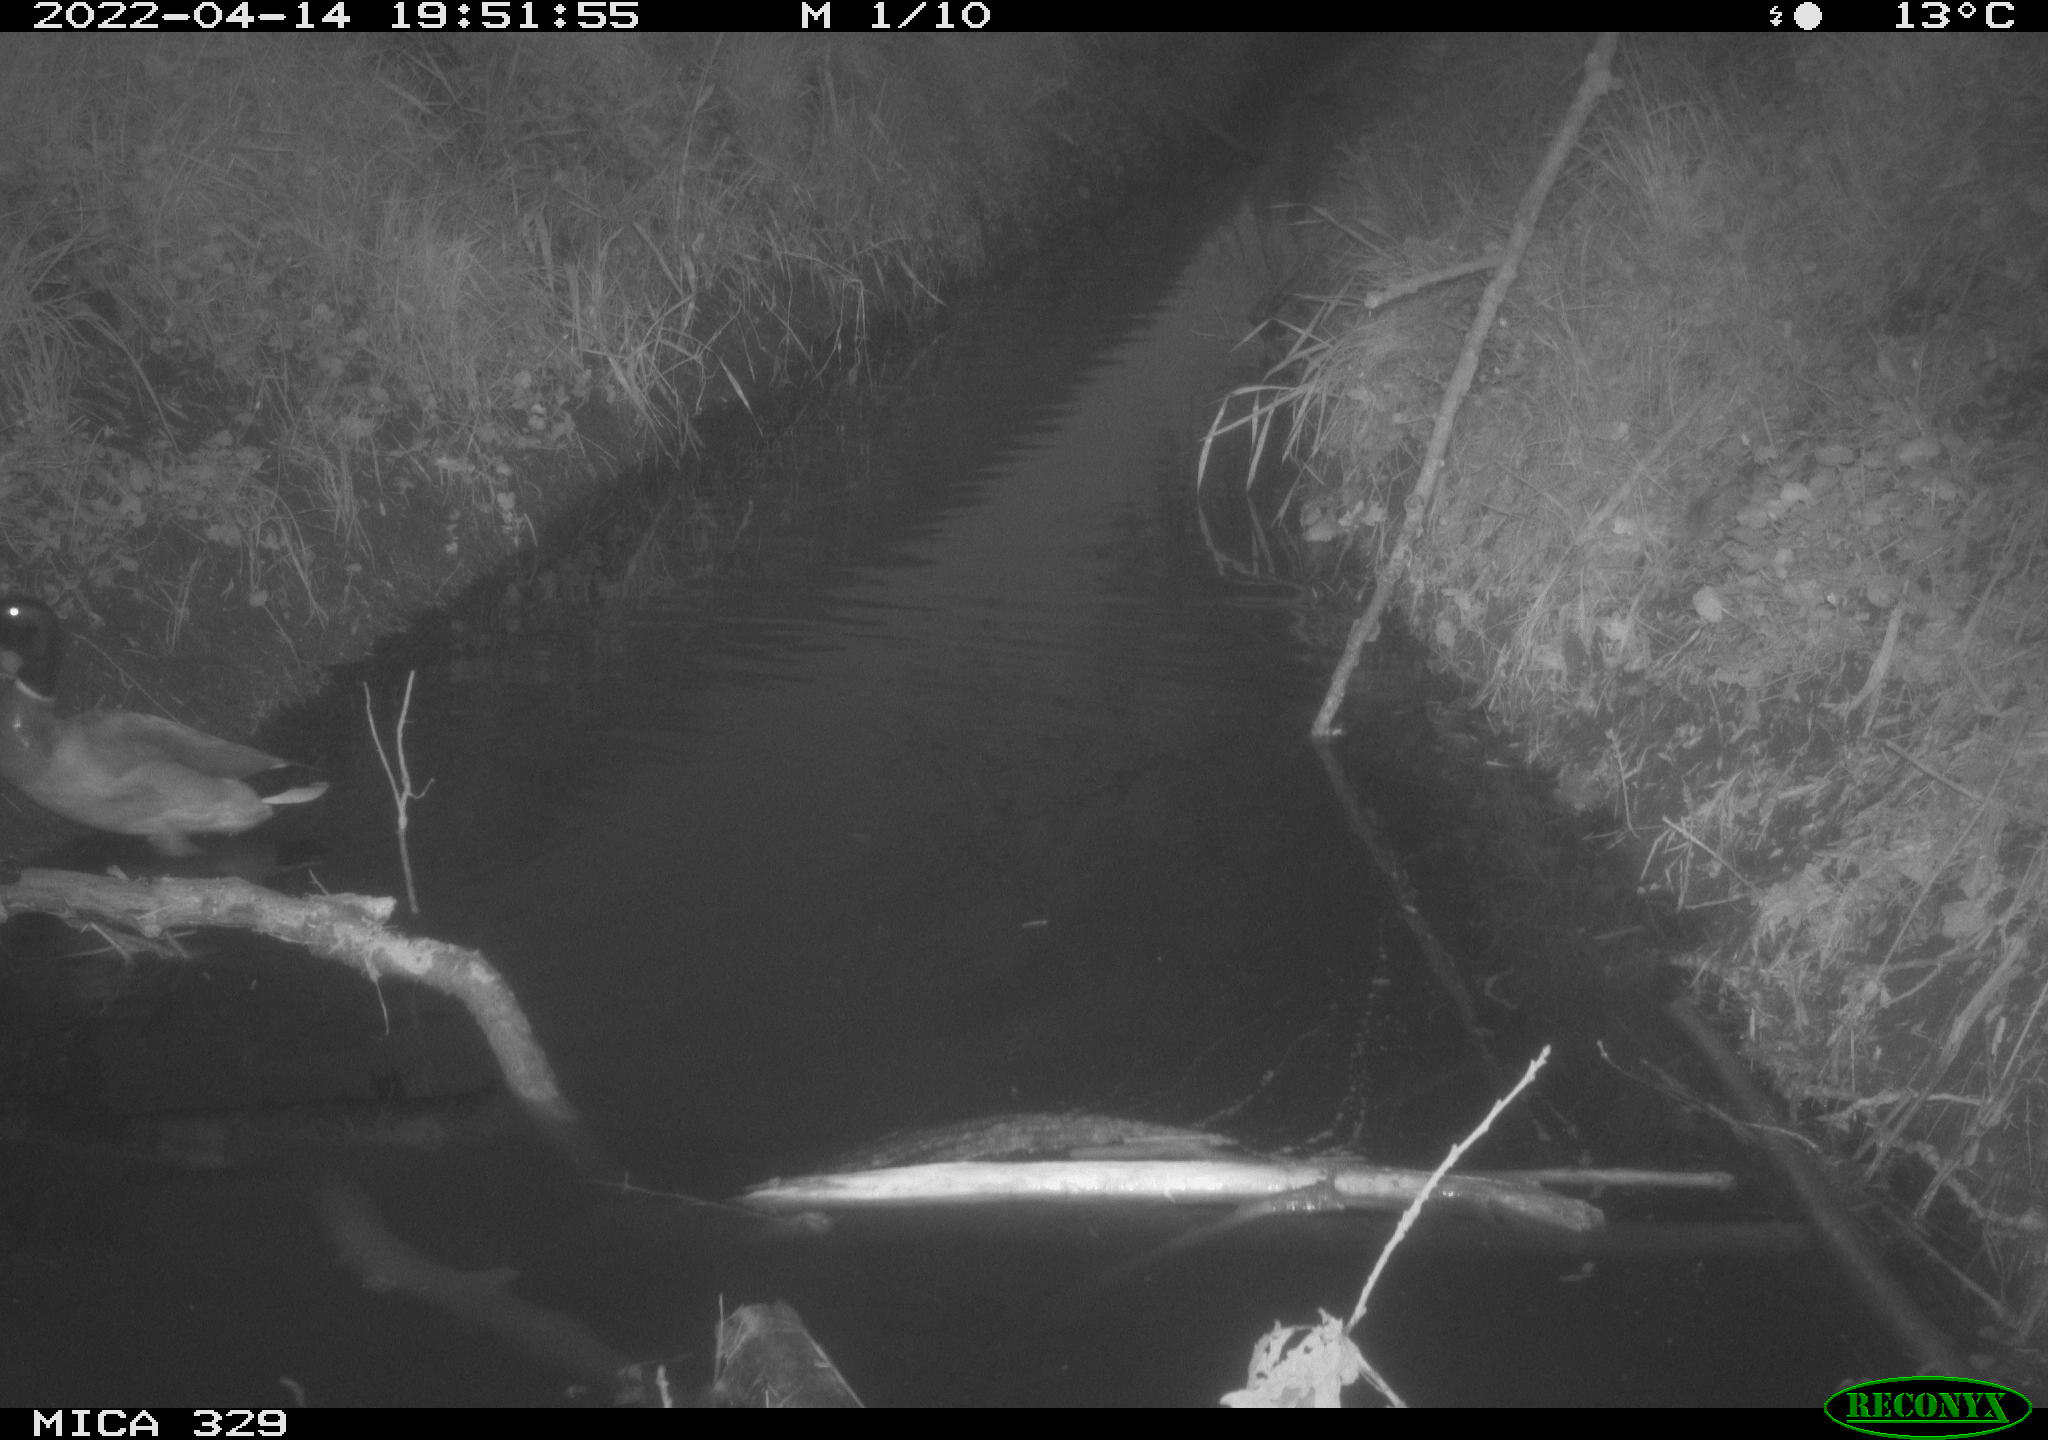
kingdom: Animalia
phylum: Chordata
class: Aves
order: Anseriformes
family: Anatidae
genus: Anas
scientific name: Anas platyrhynchos
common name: Mallard
